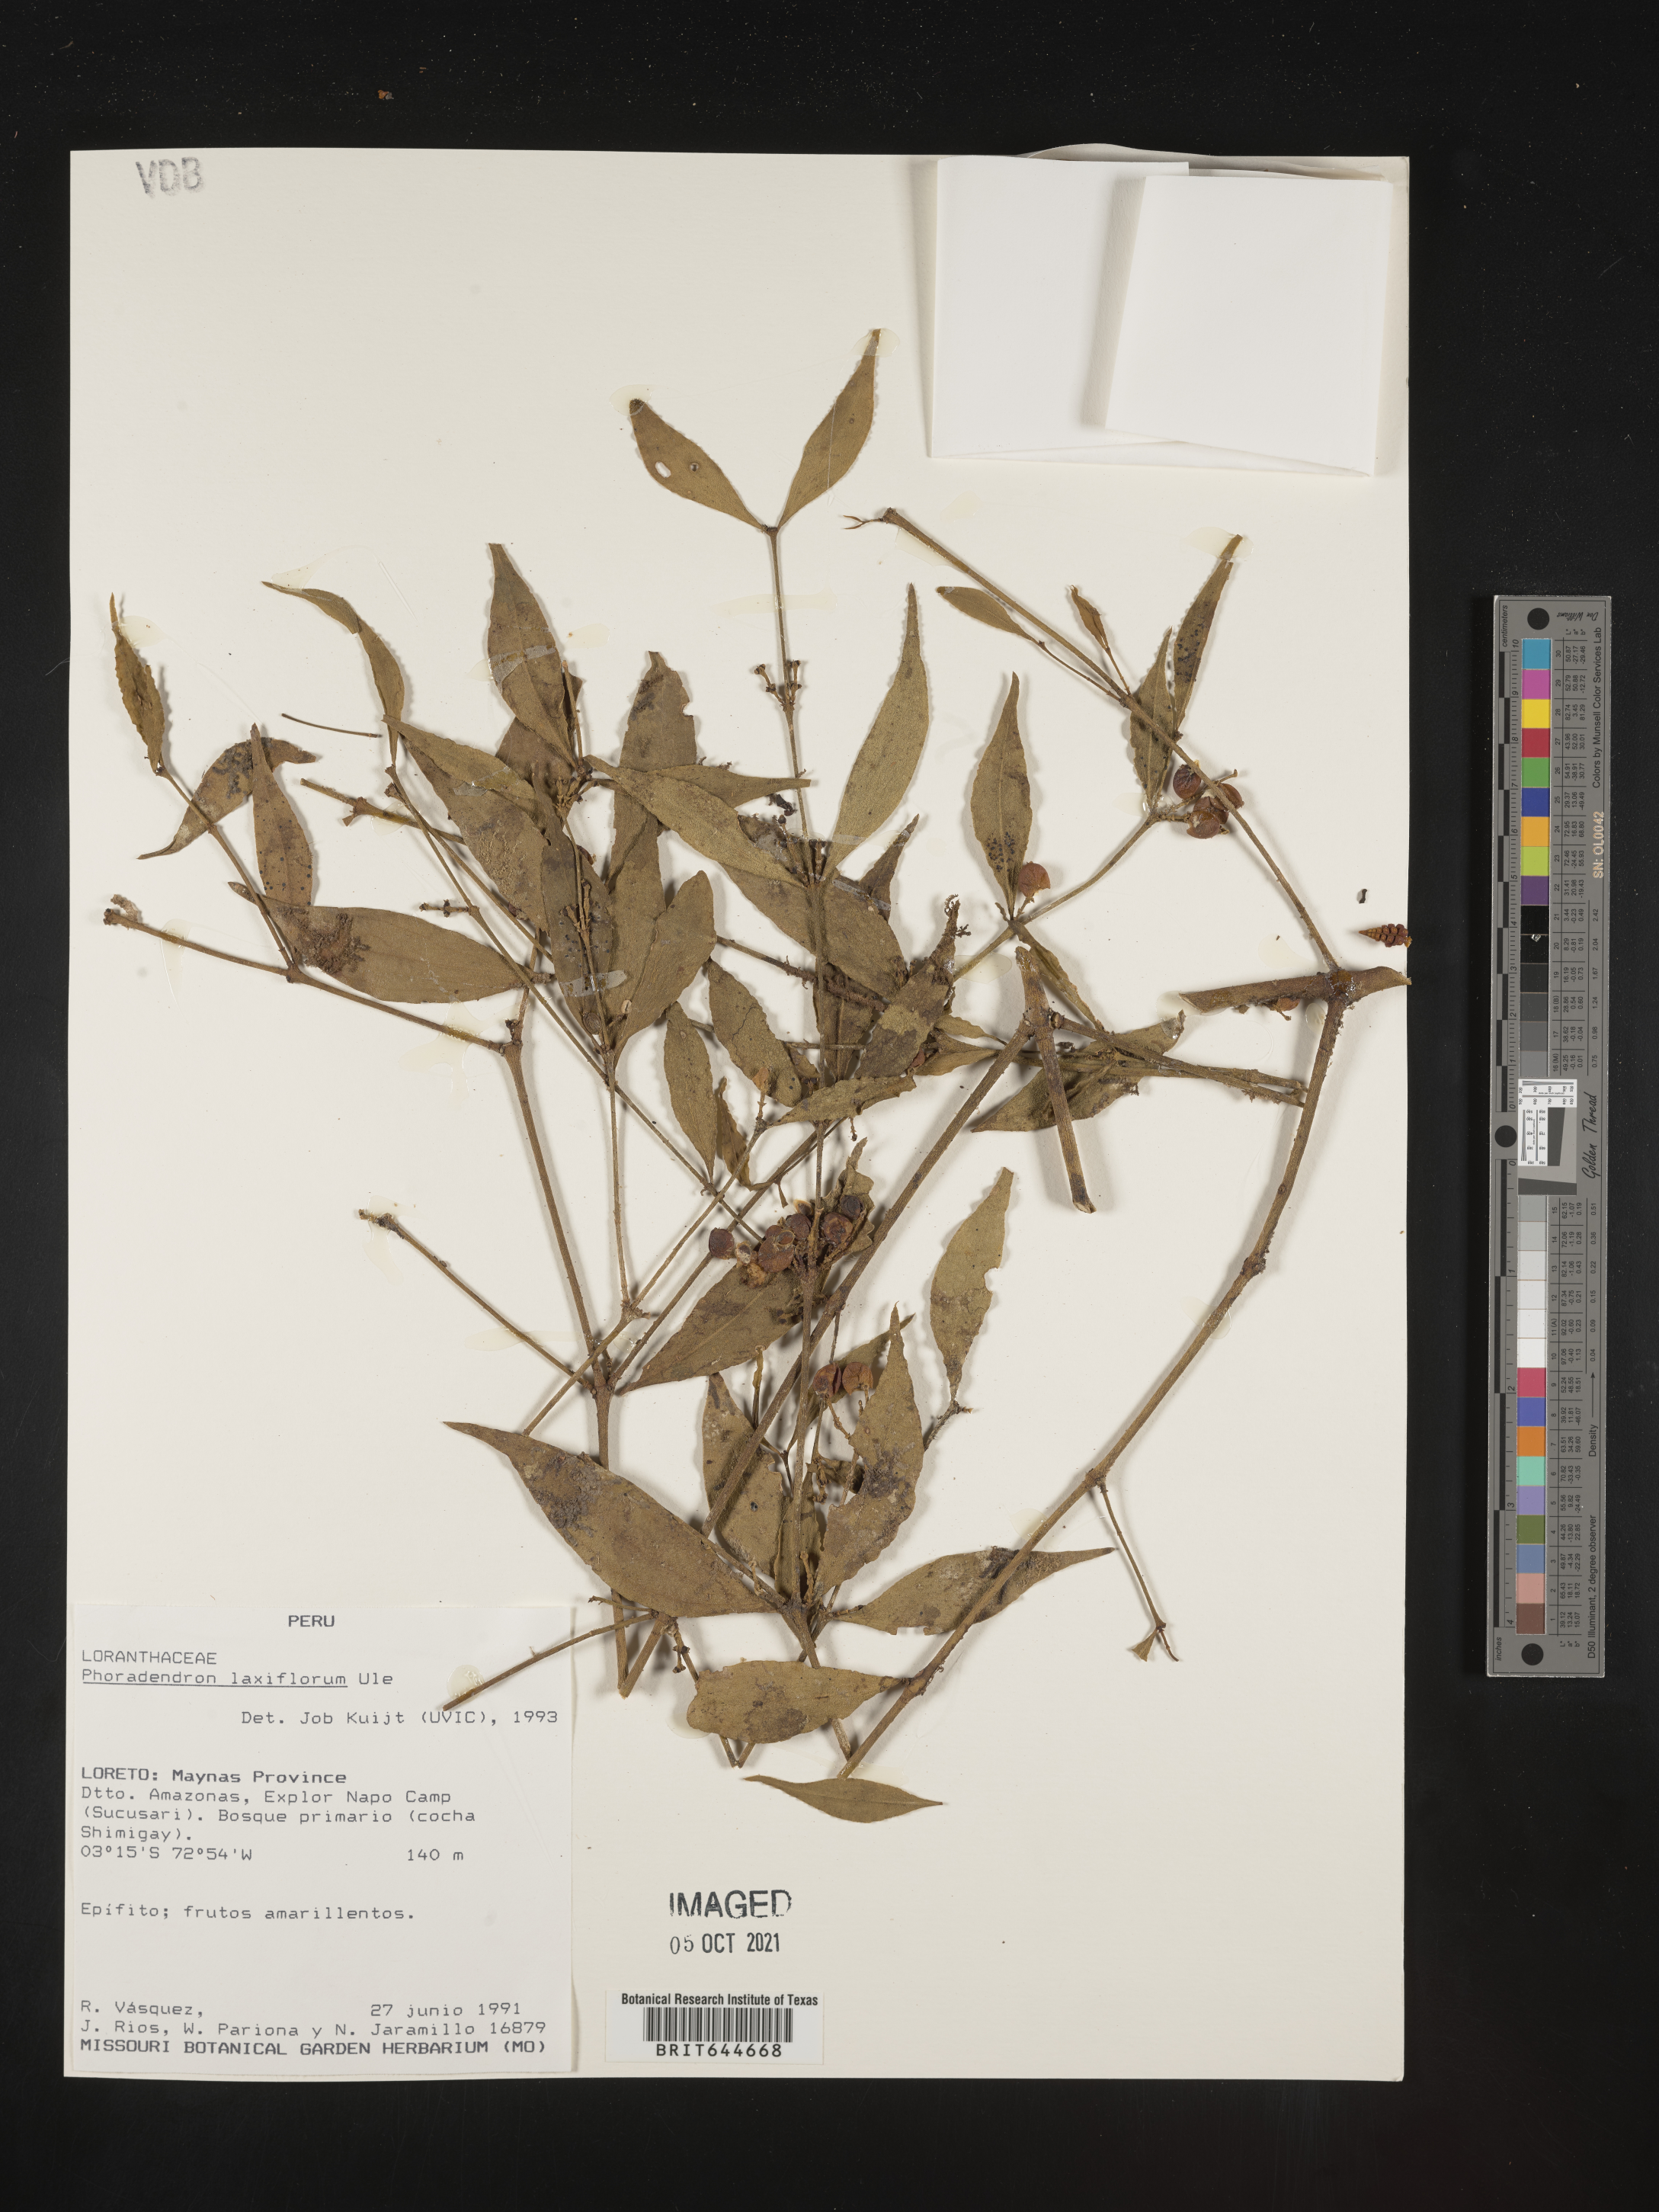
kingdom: Plantae
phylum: Tracheophyta
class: Magnoliopsida
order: Santalales
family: Viscaceae
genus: Phoradendron
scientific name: Phoradendron
